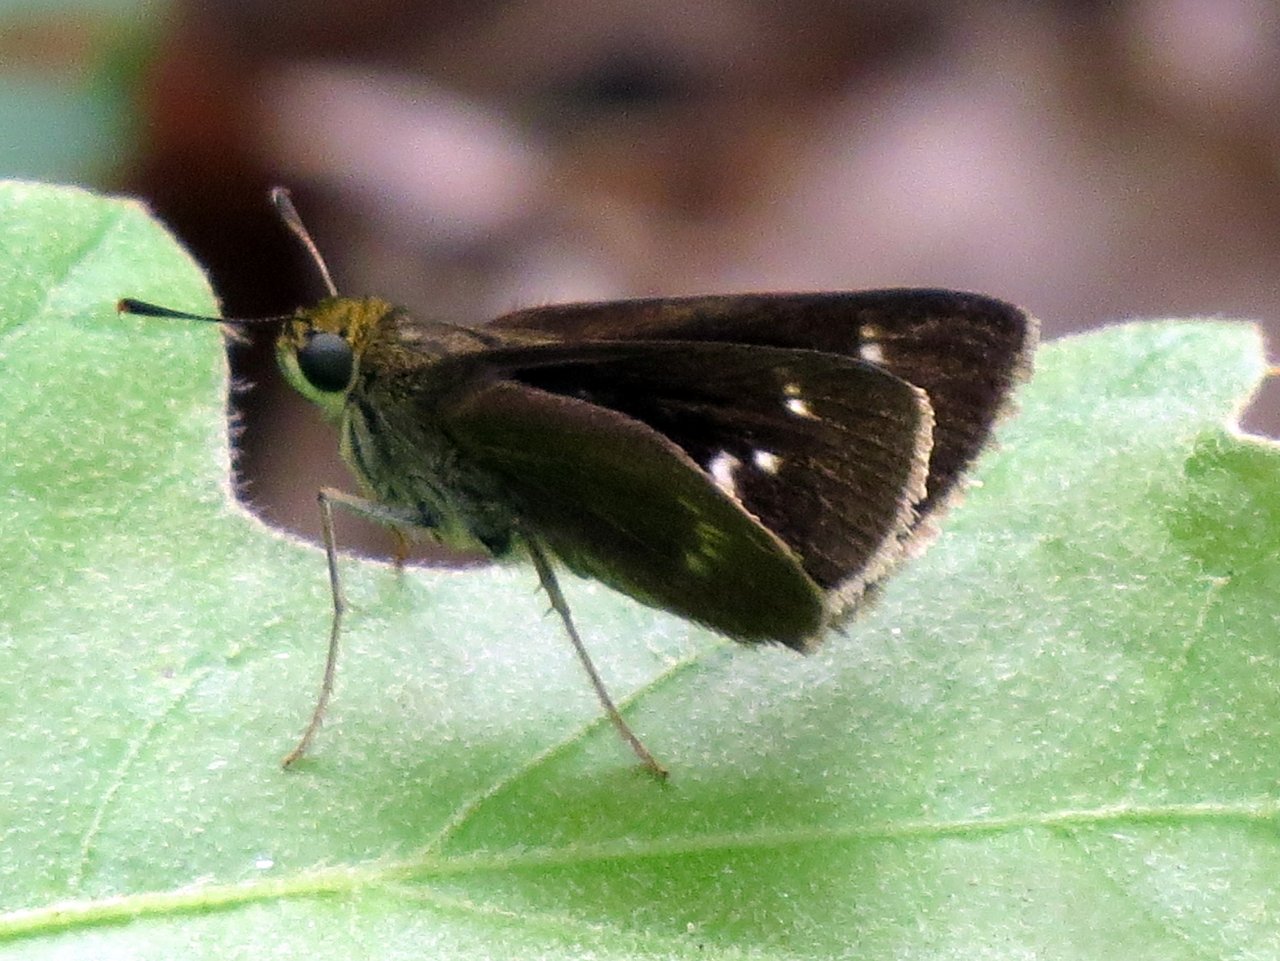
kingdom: Animalia
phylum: Arthropoda
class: Insecta
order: Lepidoptera
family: Hesperiidae
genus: Euphyes
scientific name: Euphyes vestris
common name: Dun Skipper
